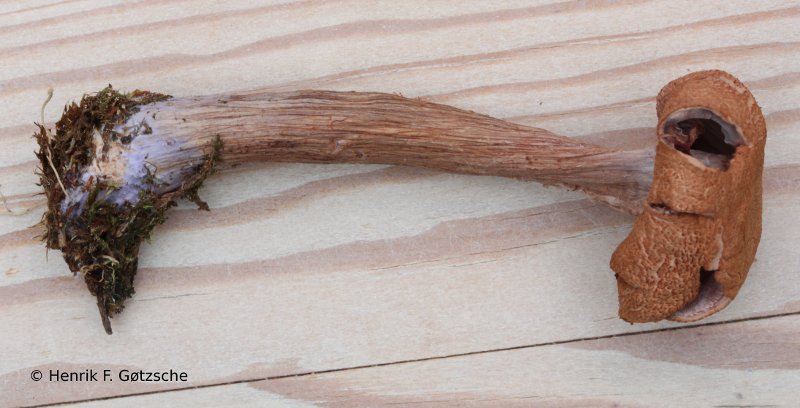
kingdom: Fungi
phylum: Basidiomycota
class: Agaricomycetes
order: Agaricales
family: Hydnangiaceae
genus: Laccaria
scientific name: Laccaria bicolor
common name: tvefarvet ametysthat
